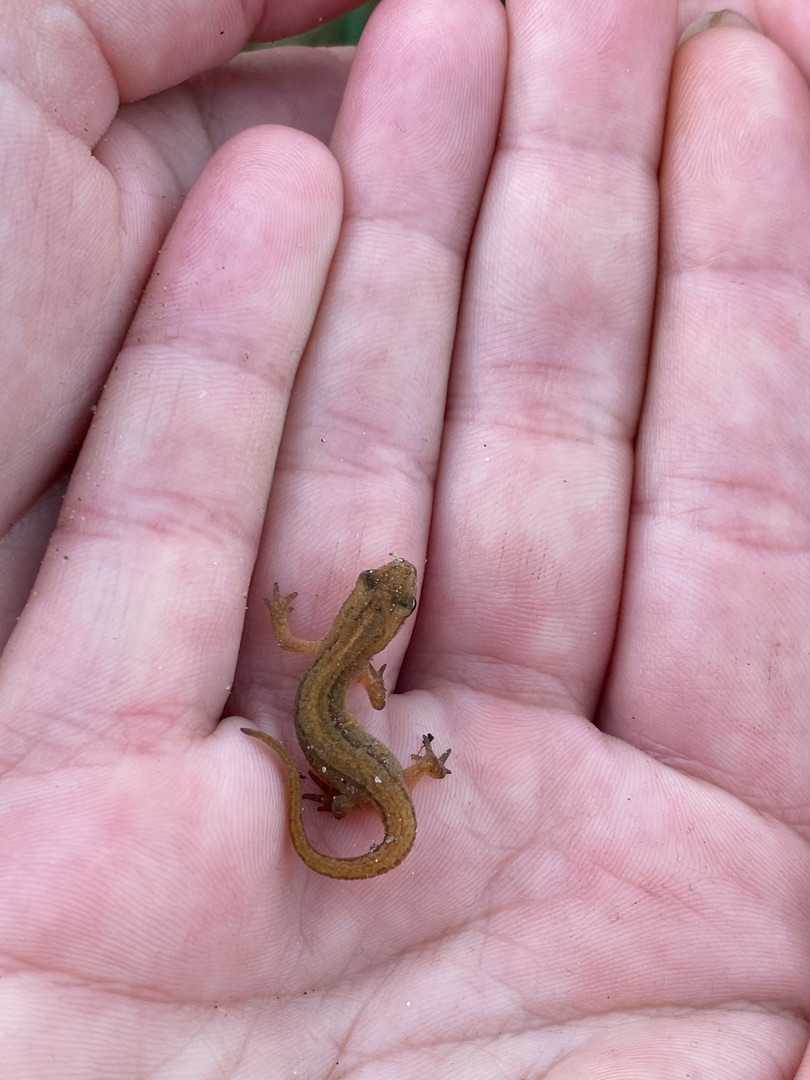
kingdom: Animalia
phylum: Chordata
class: Amphibia
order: Caudata
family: Salamandridae
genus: Lissotriton
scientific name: Lissotriton vulgaris
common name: Lille vandsalamander
